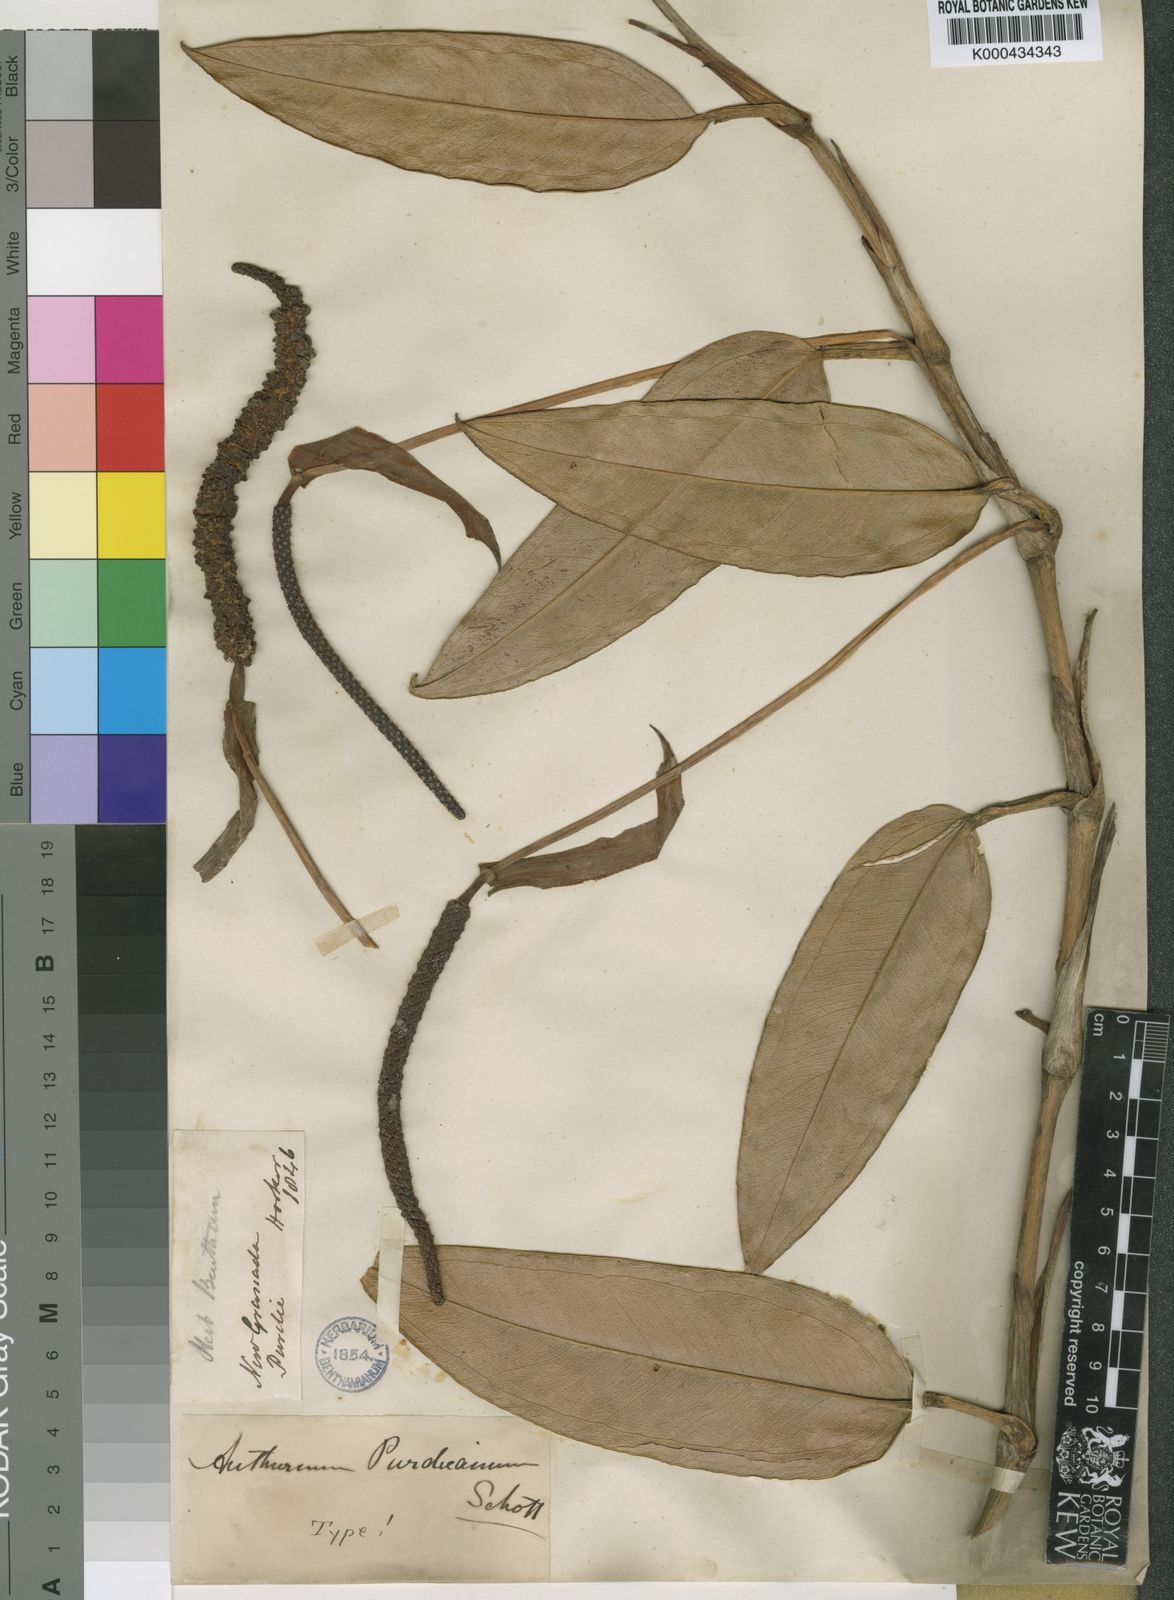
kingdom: Plantae
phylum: Tracheophyta
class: Liliopsida
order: Alismatales
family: Araceae
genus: Anthurium
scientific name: Anthurium purdieanum
